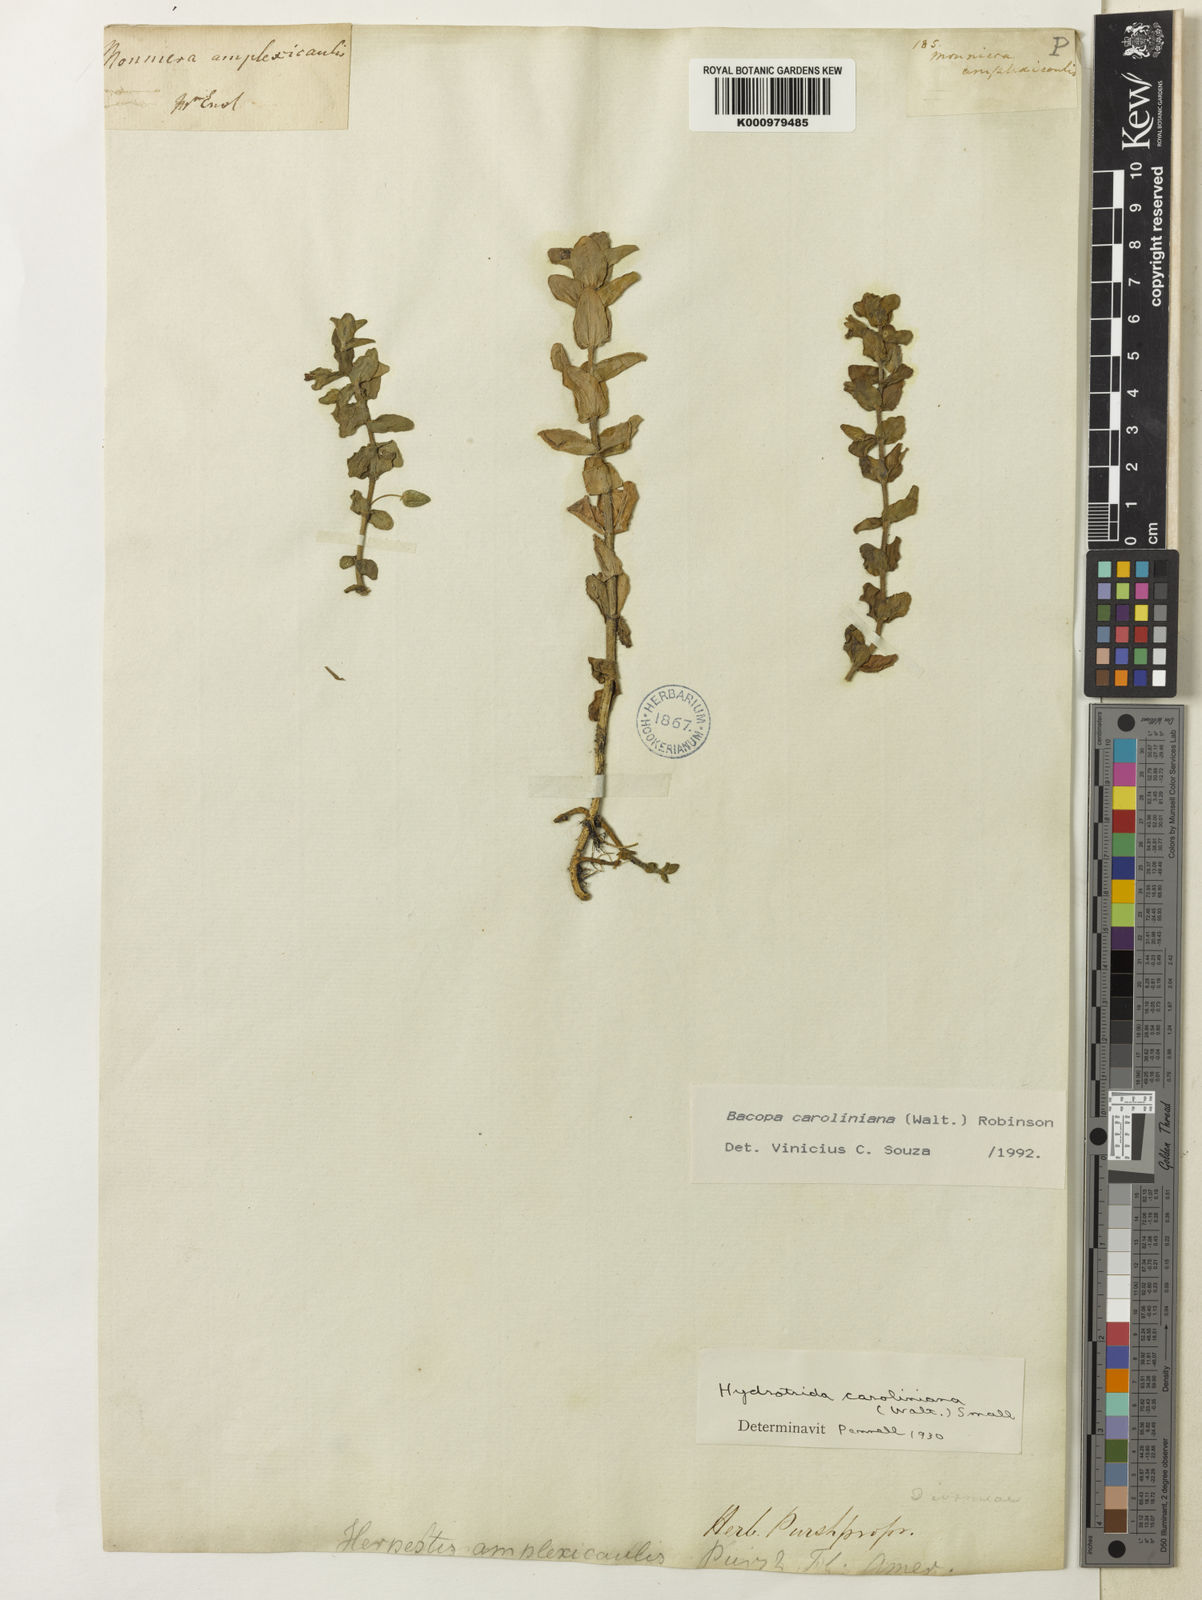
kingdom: Plantae
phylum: Tracheophyta
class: Magnoliopsida
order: Lamiales
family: Plantaginaceae
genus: Bacopa
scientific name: Bacopa caroliniana
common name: Lemon bacopa
